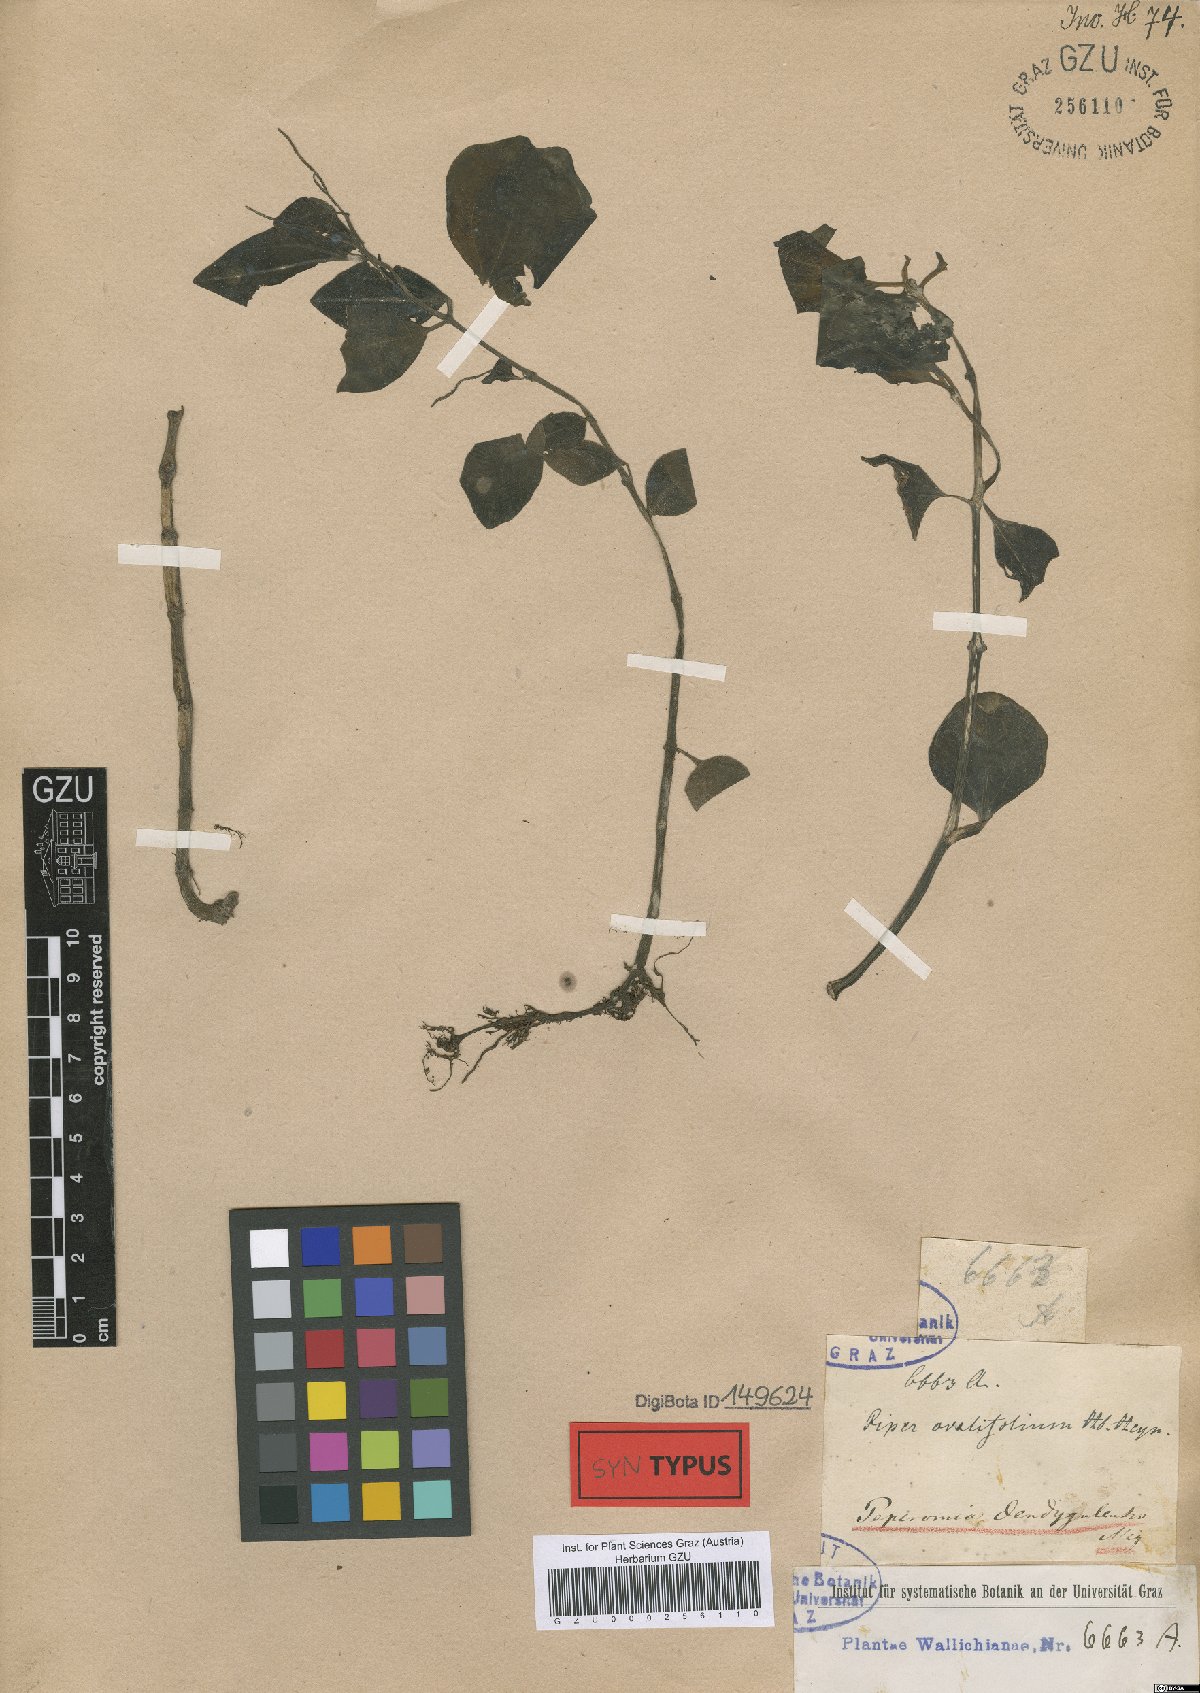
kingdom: Plantae
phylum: Tracheophyta
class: Magnoliopsida
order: Piperales
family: Piperaceae
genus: Peperomia
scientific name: Peperomia leptostachya
